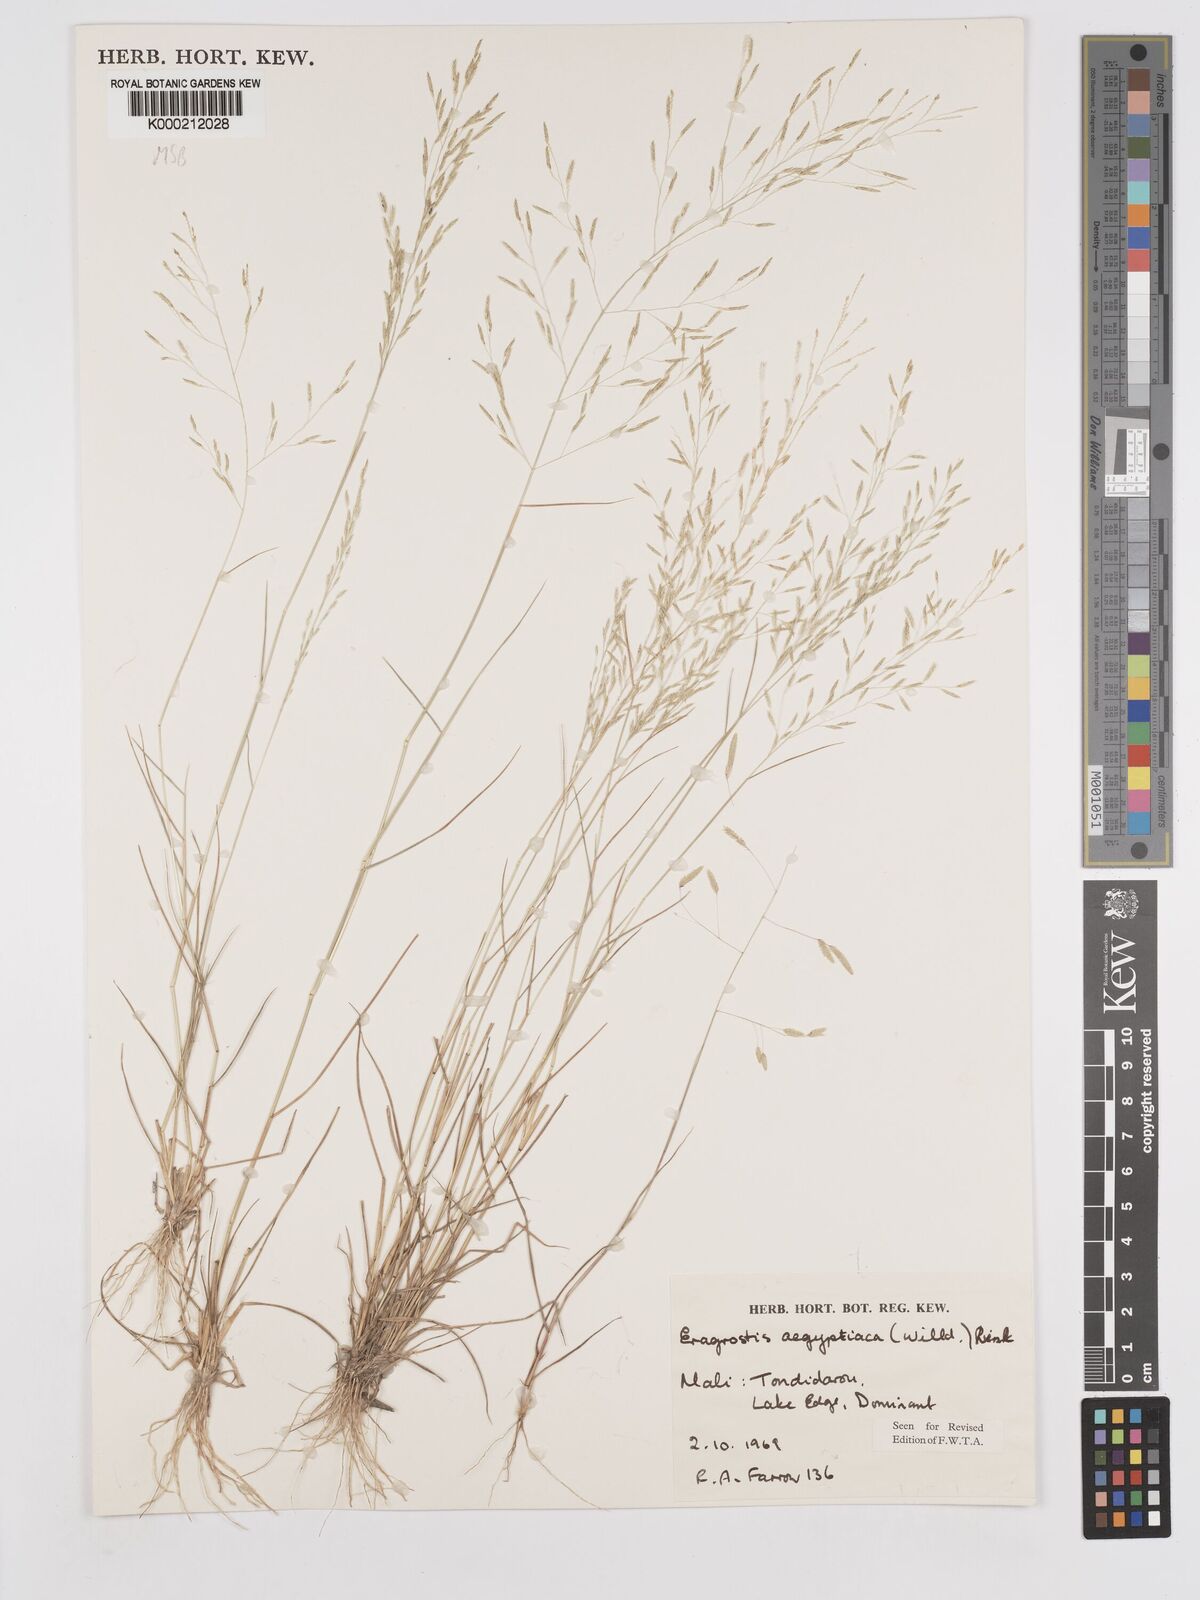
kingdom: Plantae
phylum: Tracheophyta
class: Liliopsida
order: Poales
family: Poaceae
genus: Eragrostis
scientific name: Eragrostis aegyptiaca
